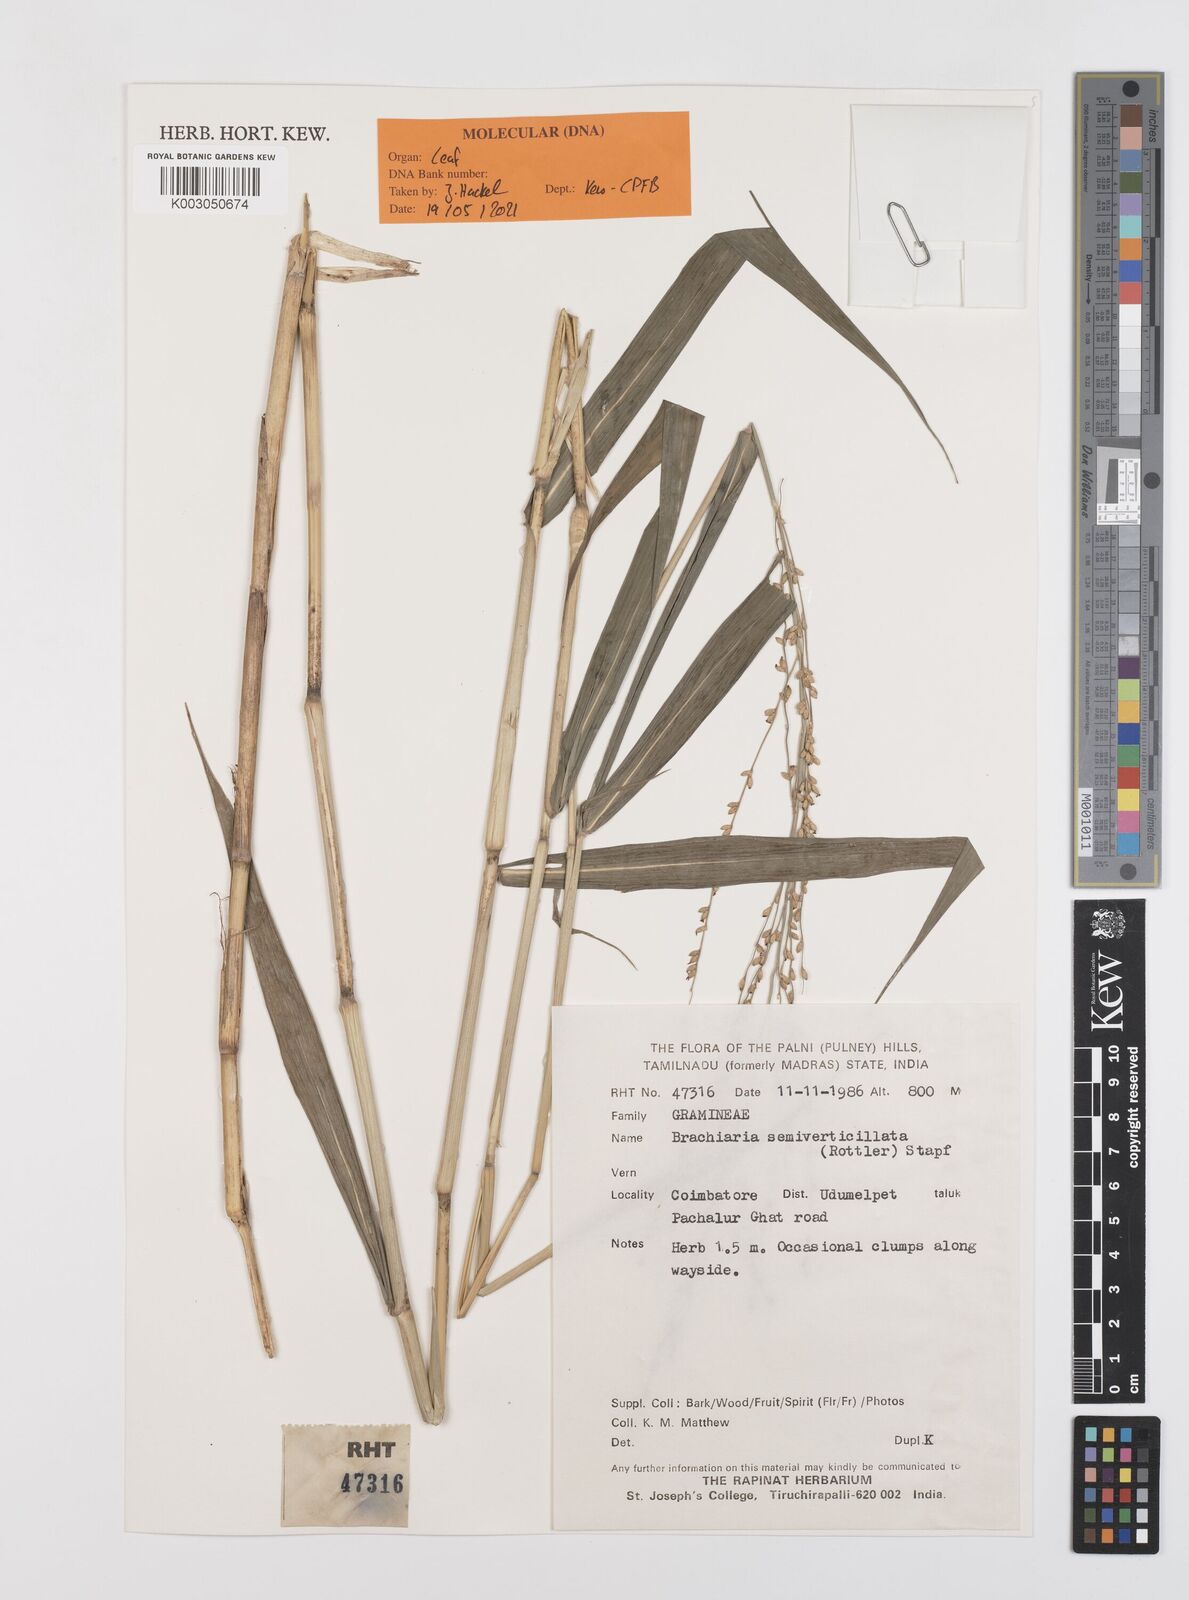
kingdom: Plantae
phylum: Tracheophyta
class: Liliopsida
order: Poales
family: Poaceae
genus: Urochloa
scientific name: Urochloa Brachiaria semiverticillata
